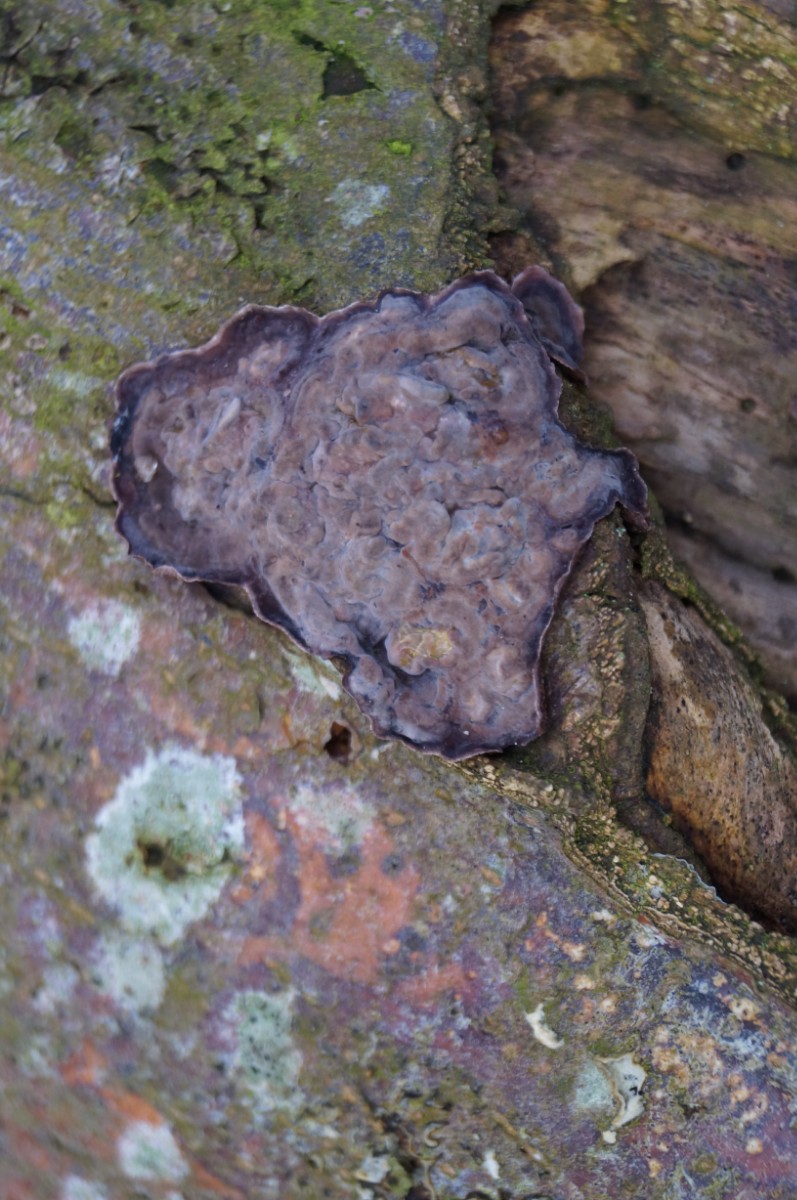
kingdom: Fungi
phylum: Basidiomycota
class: Agaricomycetes
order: Russulales
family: Peniophoraceae
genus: Peniophora
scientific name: Peniophora quercina
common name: ege-voksskind
